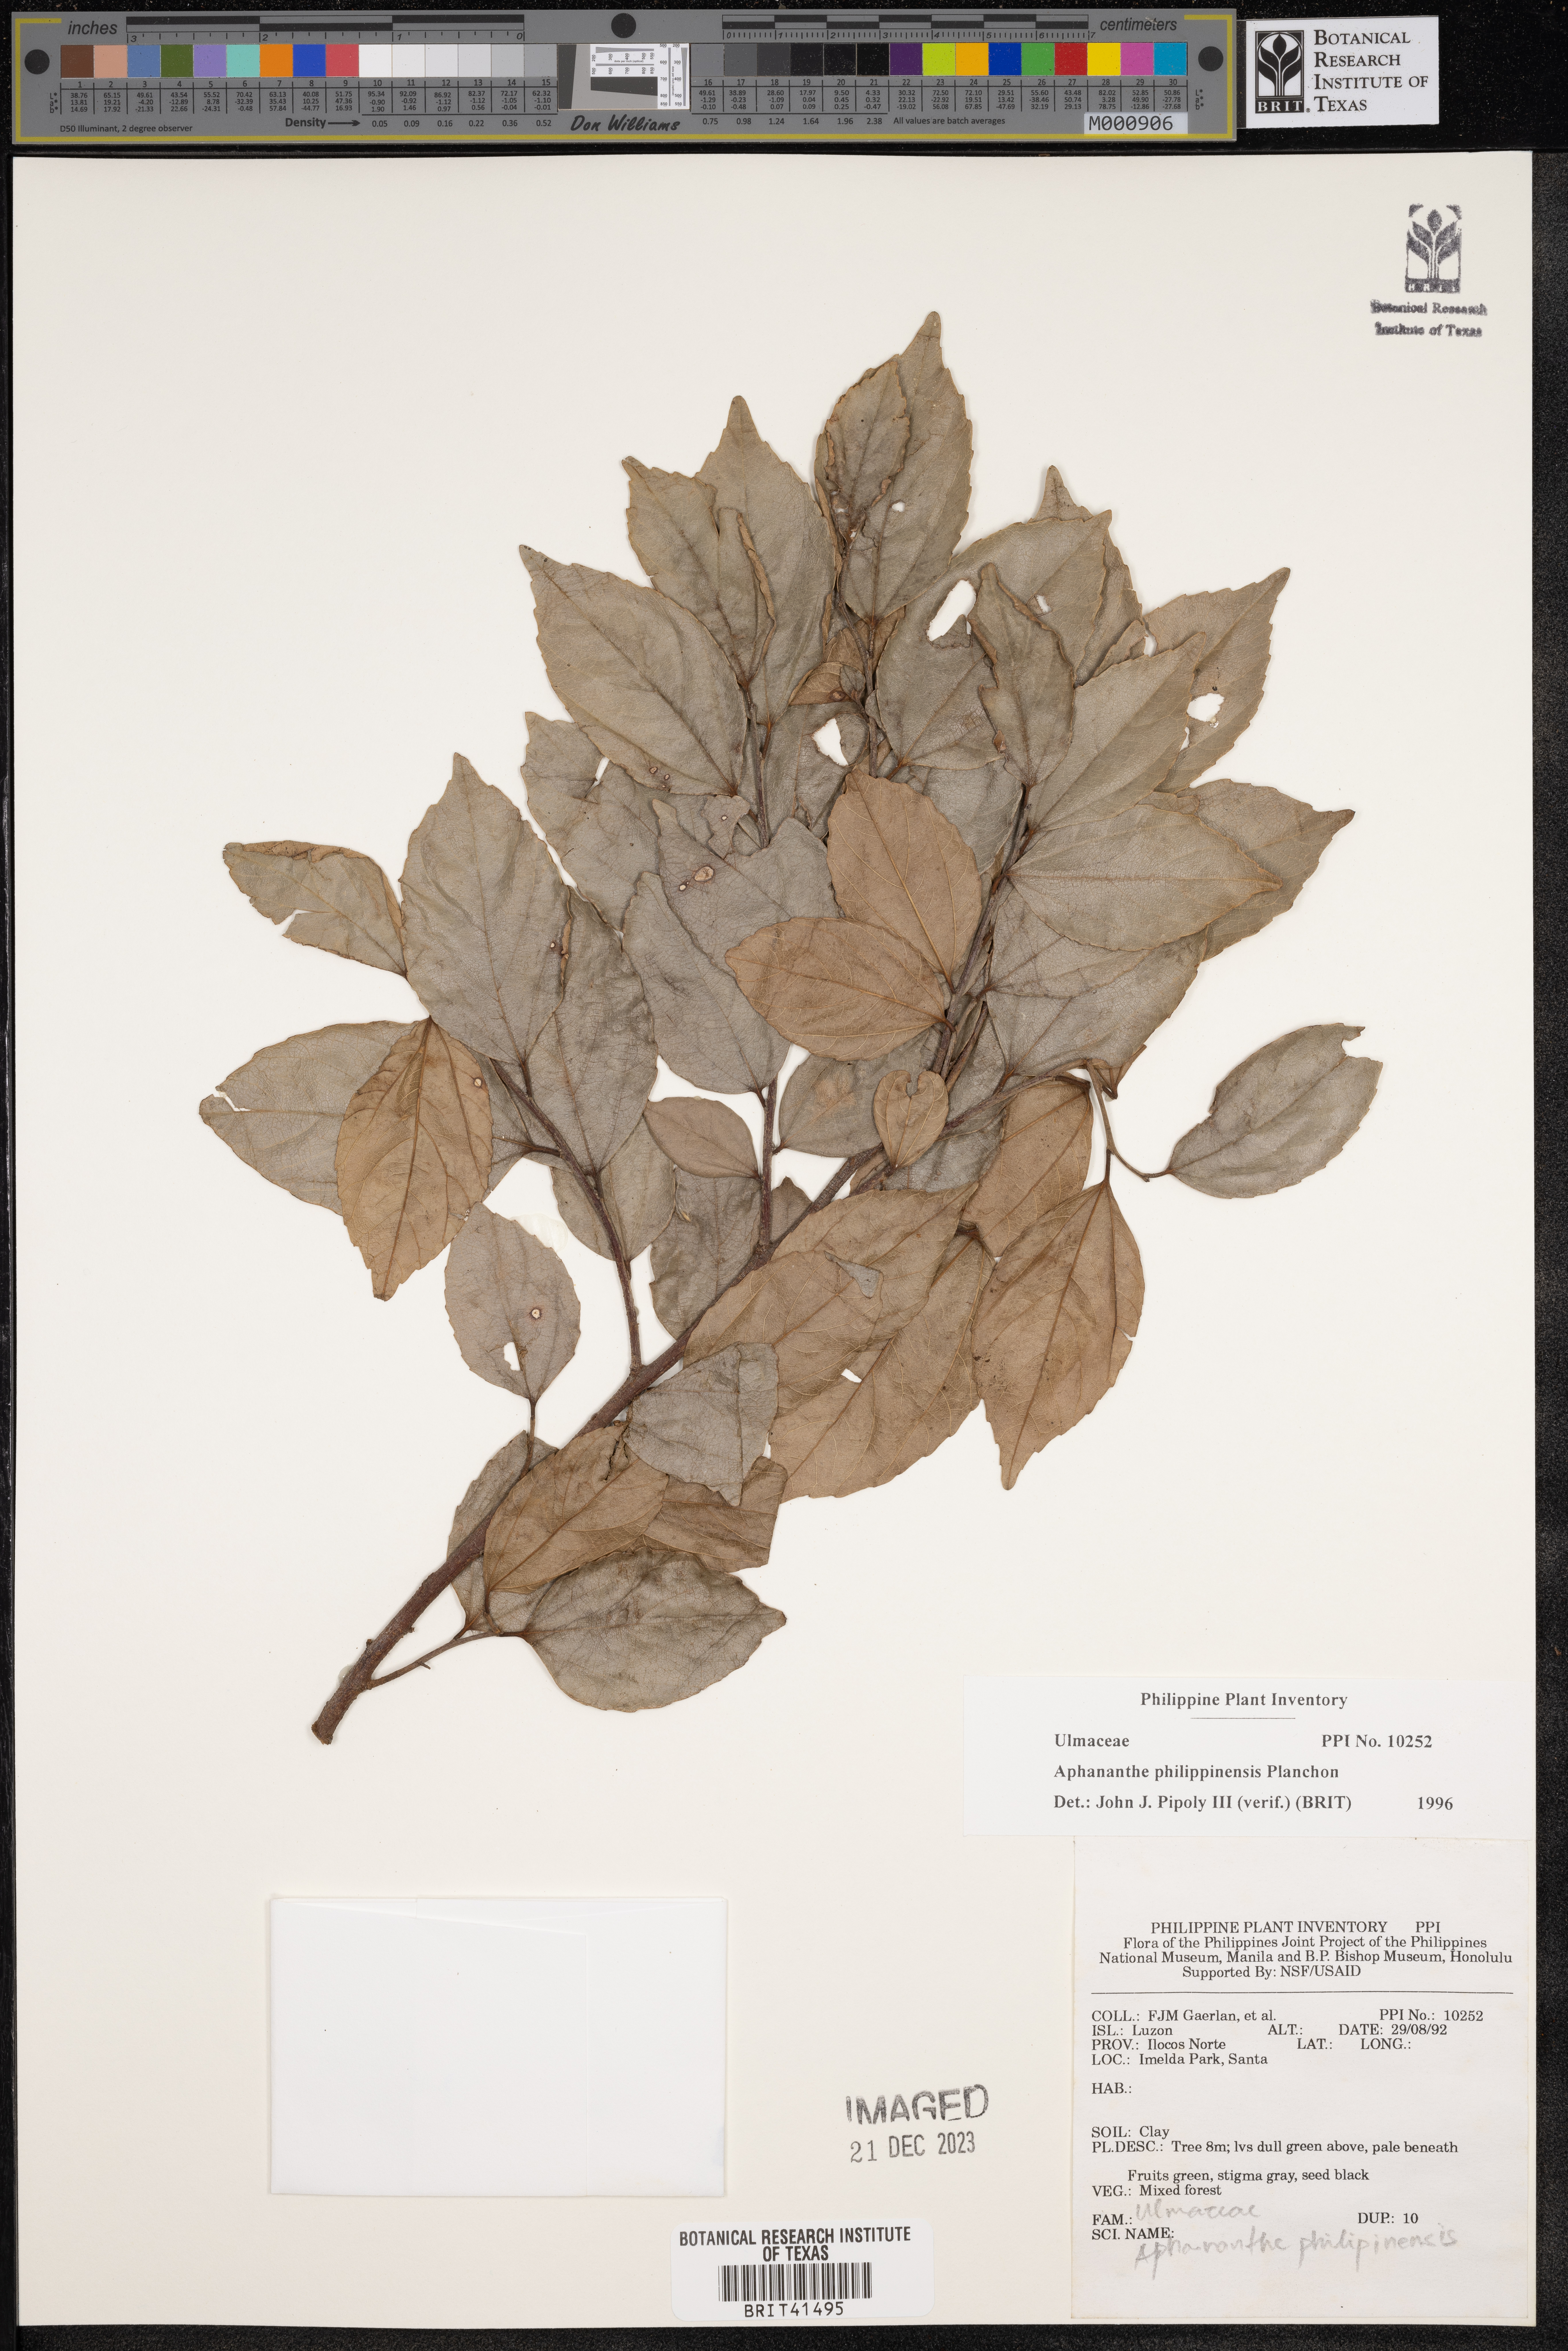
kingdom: Plantae
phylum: Tracheophyta
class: Magnoliopsida
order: Rosales
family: Cannabaceae
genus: Aphananthe
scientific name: Aphananthe philippinensis
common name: Wild holly
